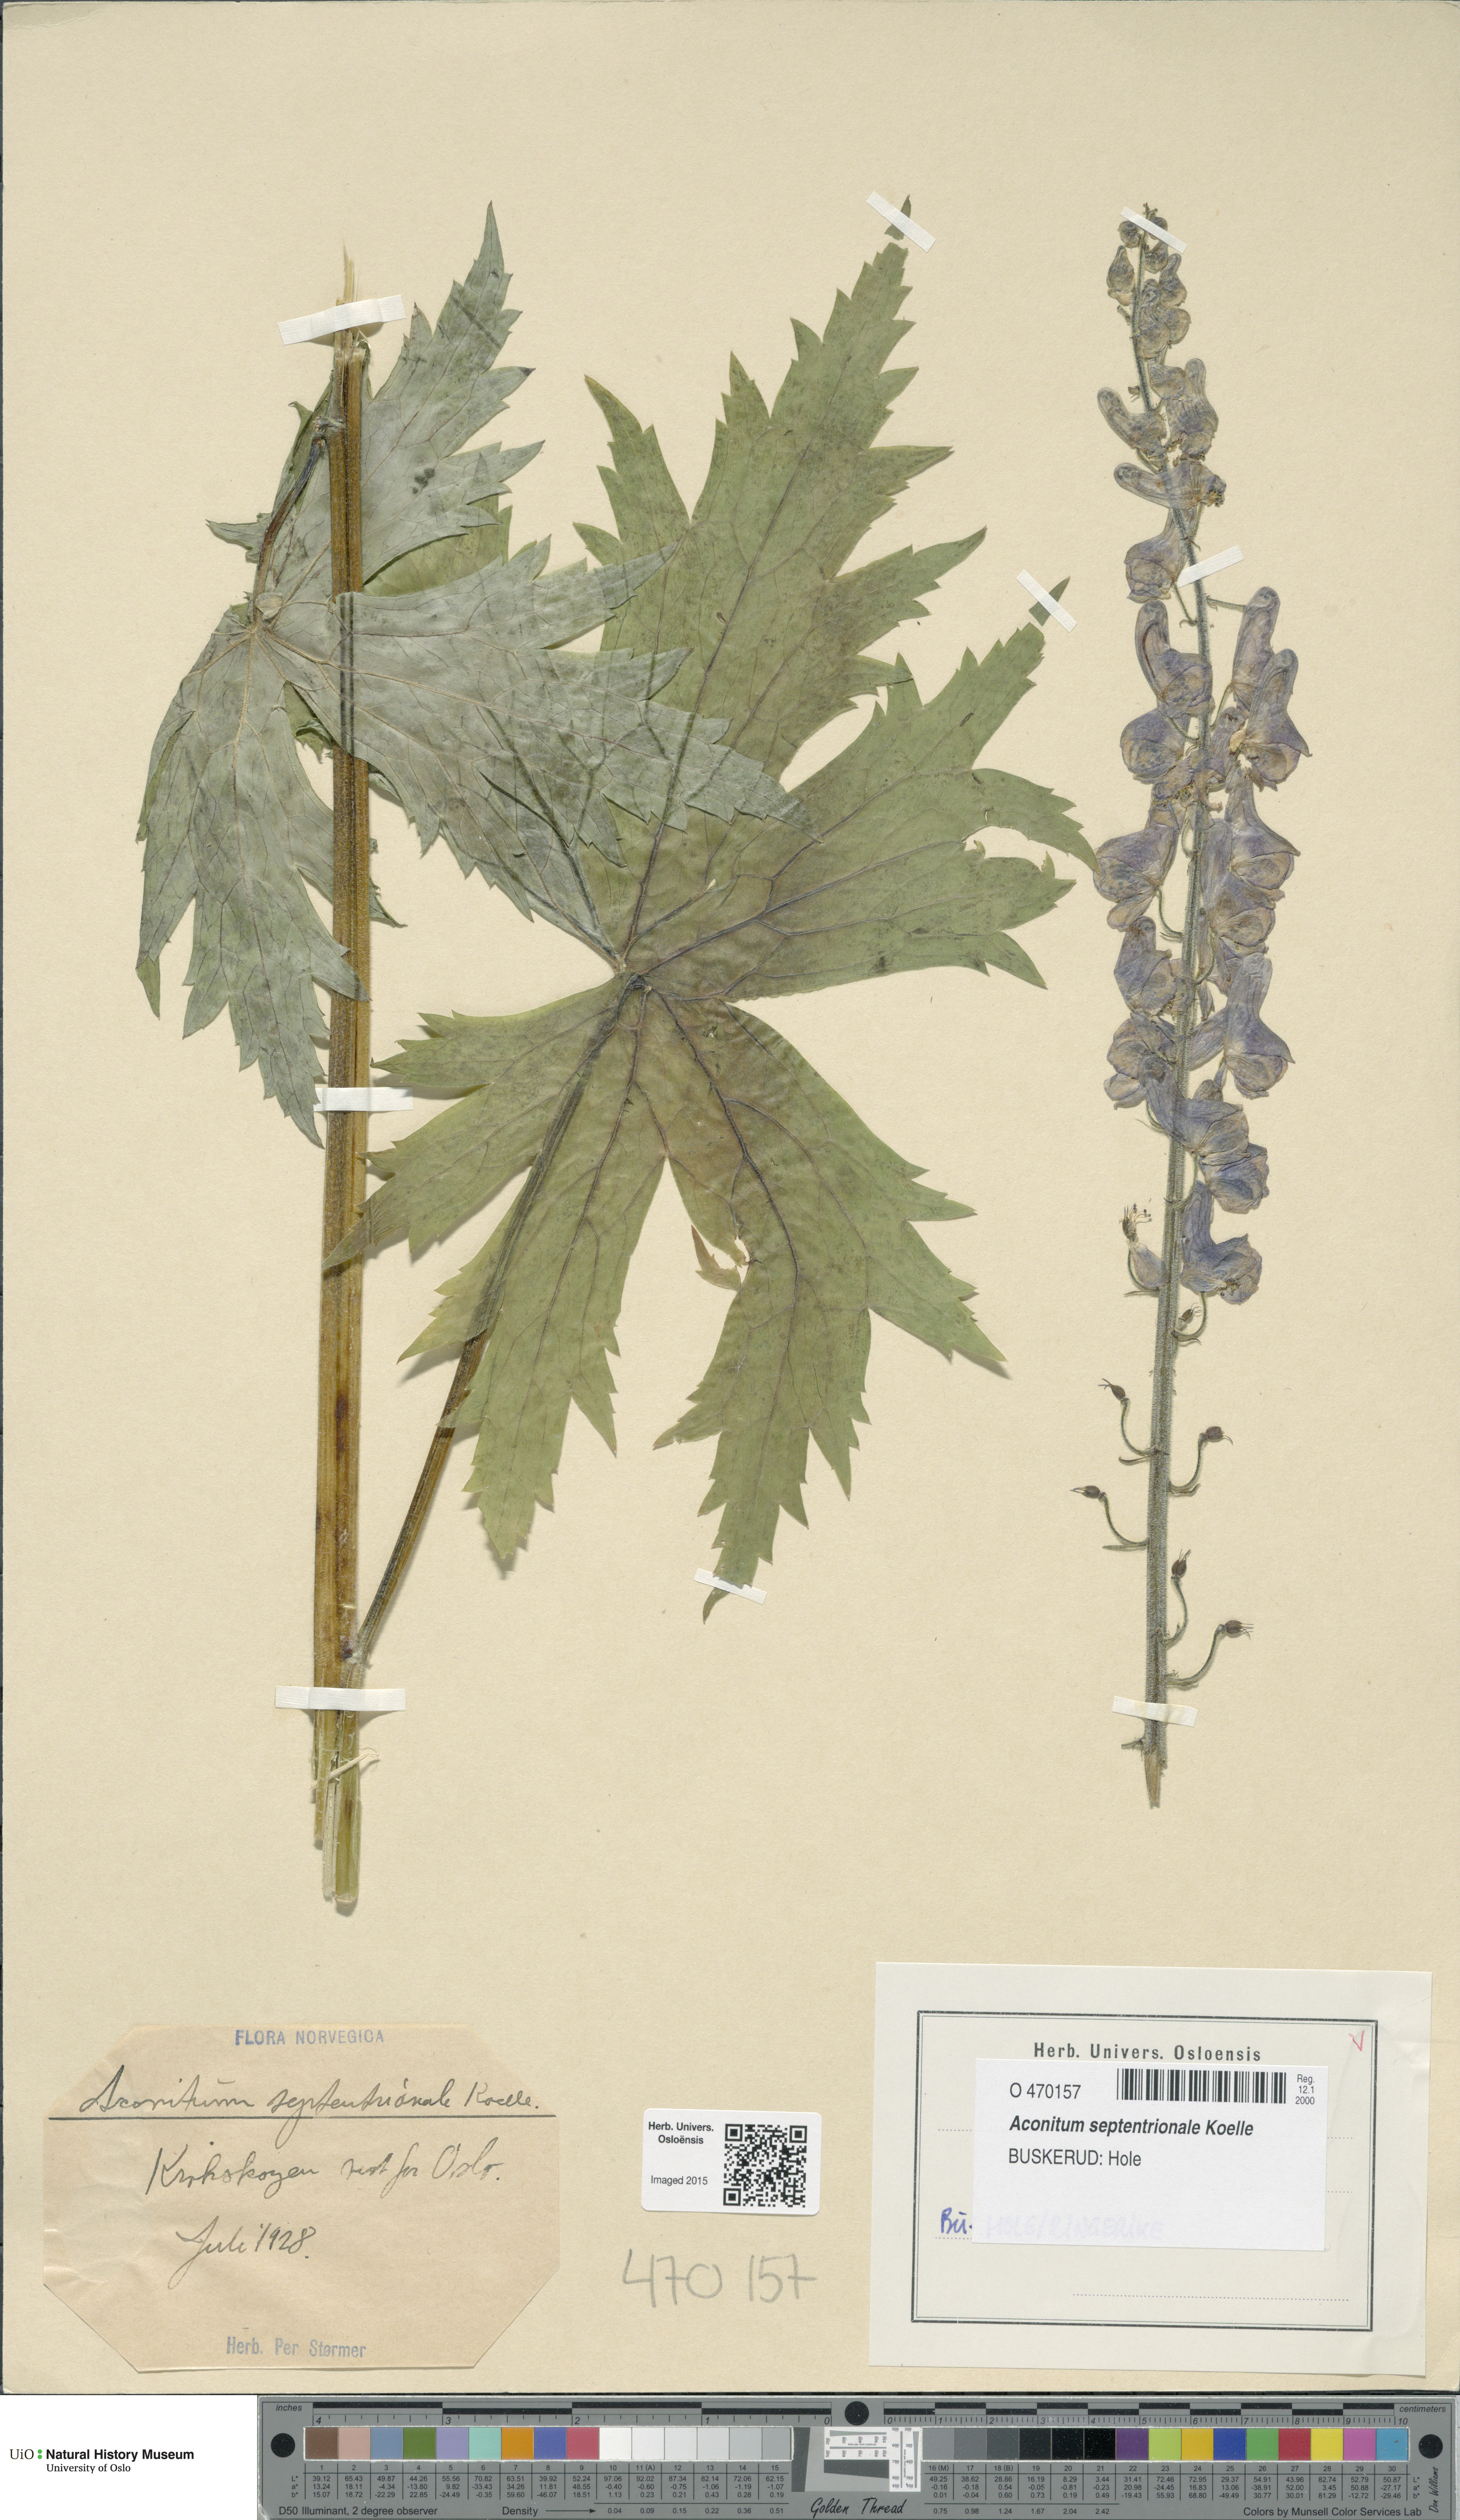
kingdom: Plantae
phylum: Tracheophyta
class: Magnoliopsida
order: Ranunculales
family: Ranunculaceae
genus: Aconitum
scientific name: Aconitum septentrionale
